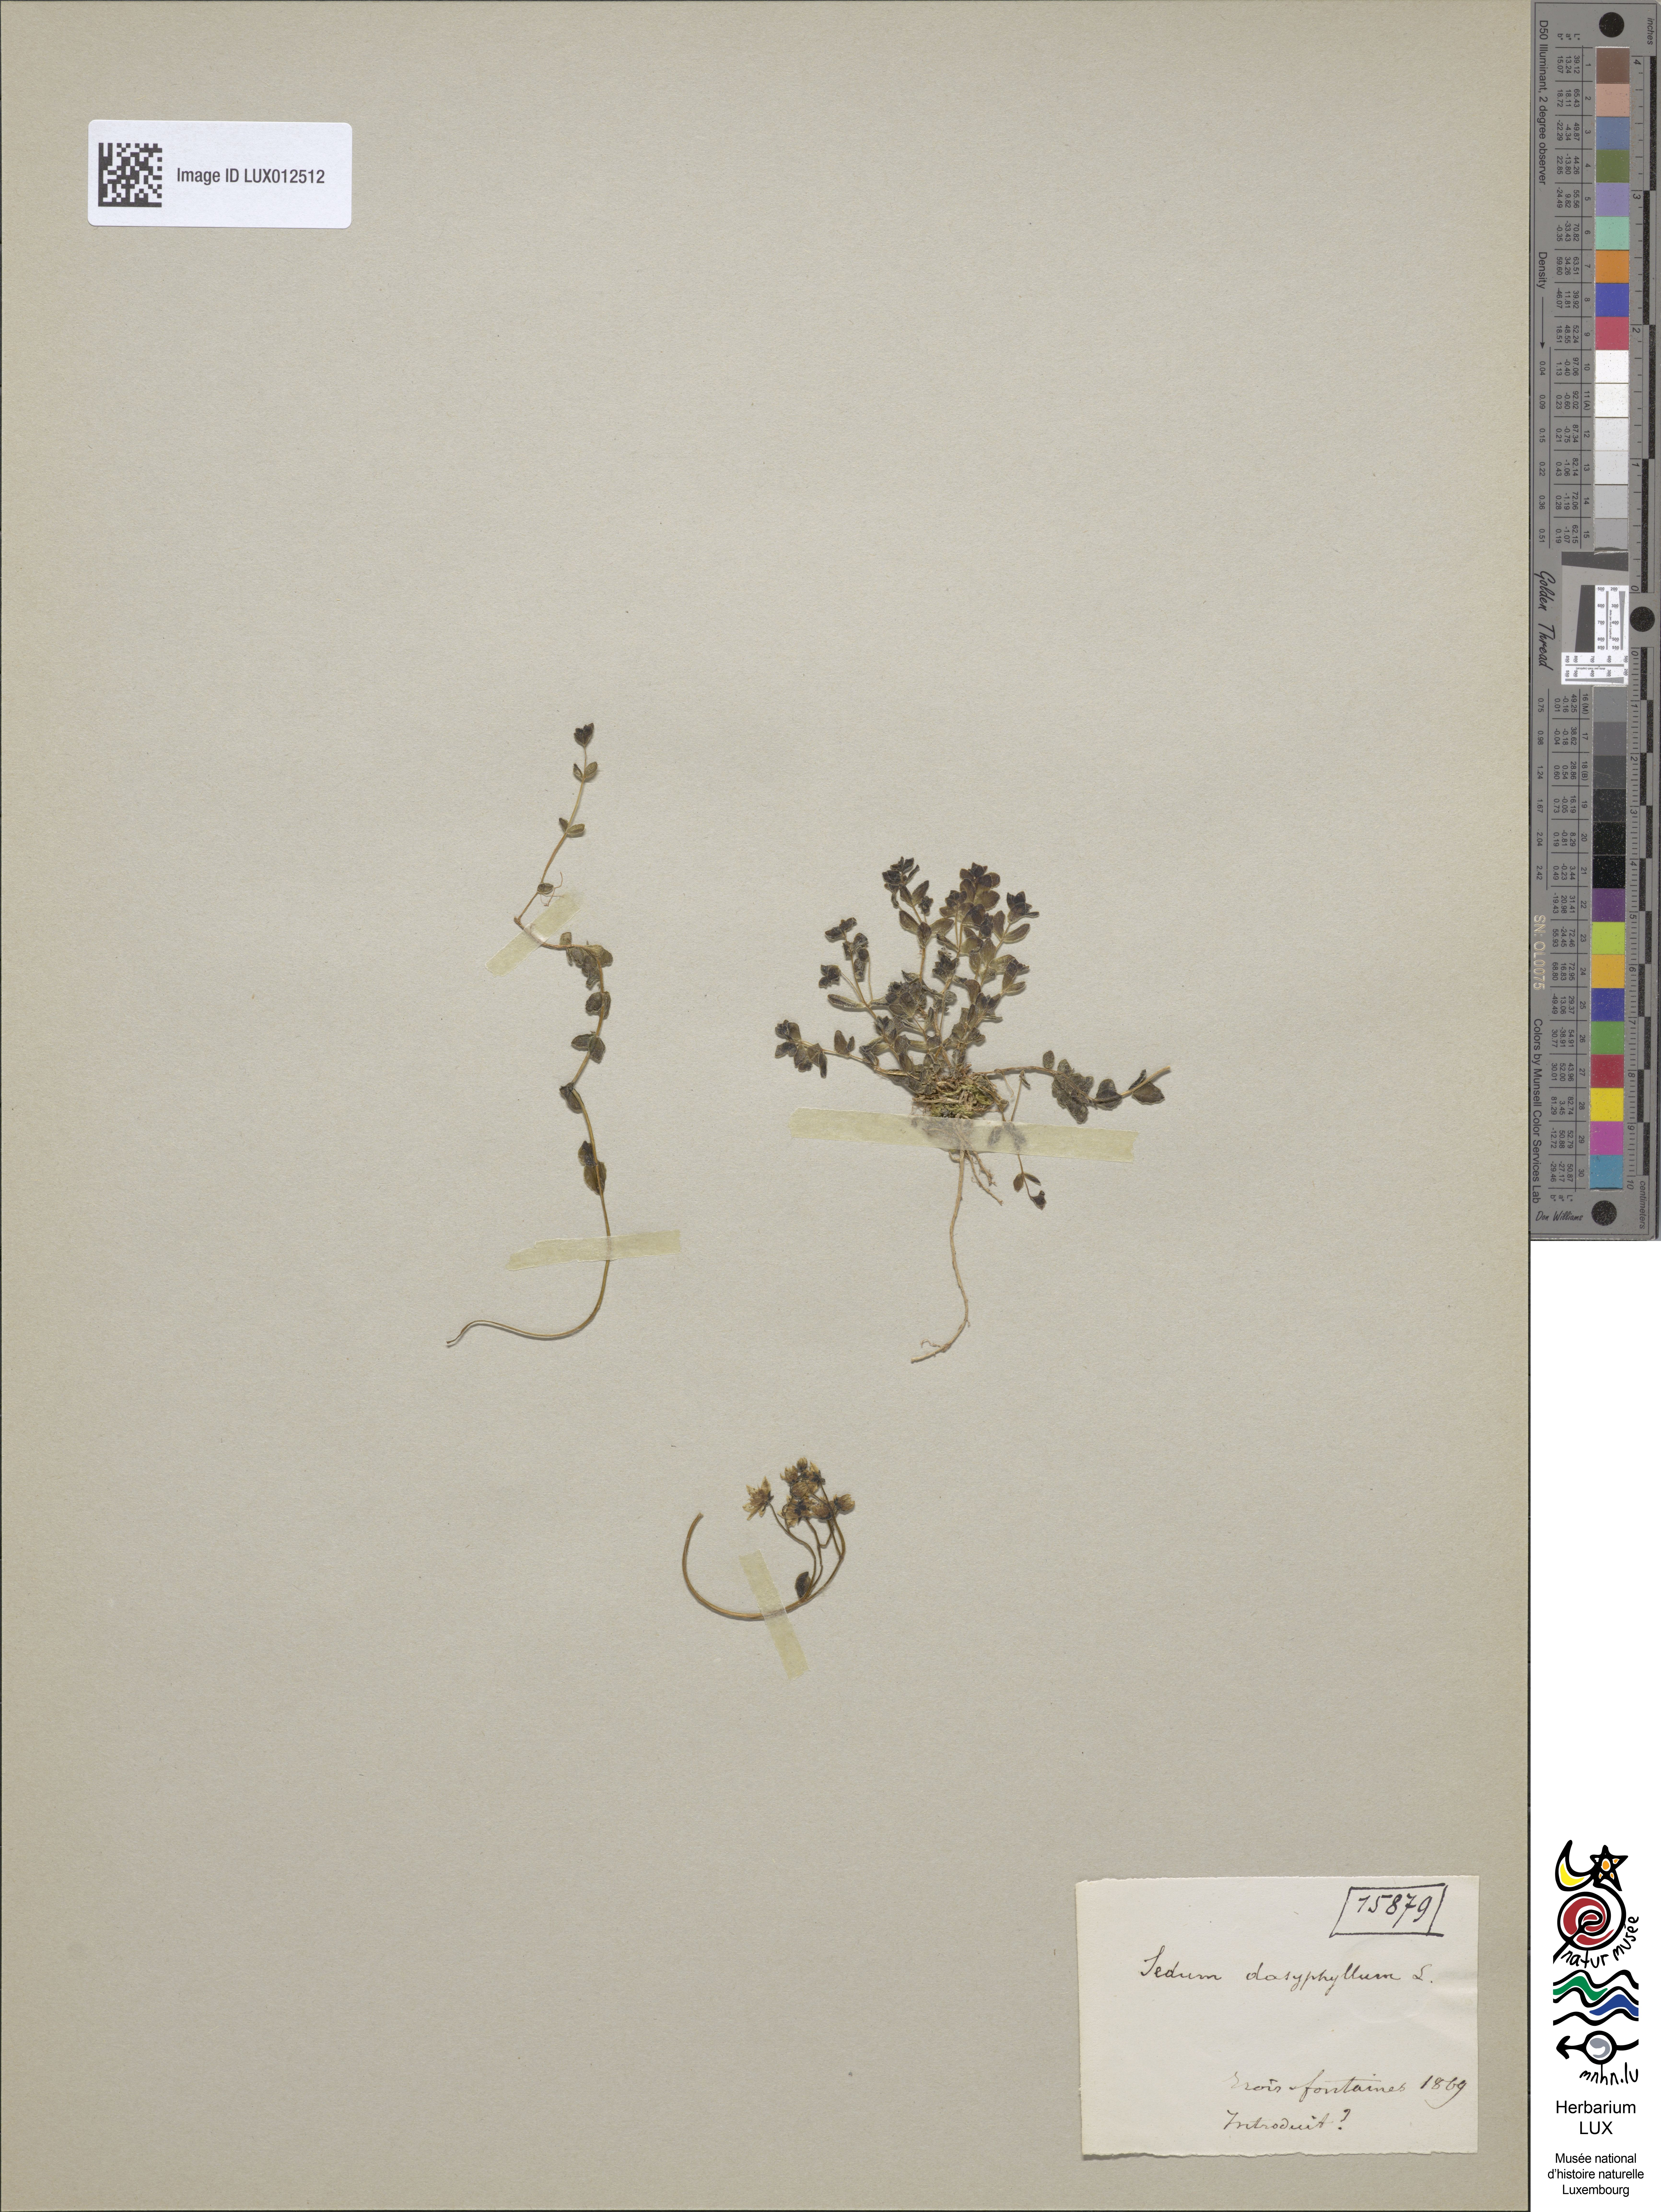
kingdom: Plantae
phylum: Tracheophyta
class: Magnoliopsida
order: Saxifragales
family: Crassulaceae
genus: Sedum
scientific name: Sedum dasyphyllum
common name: Thick-leaf stonecrop
